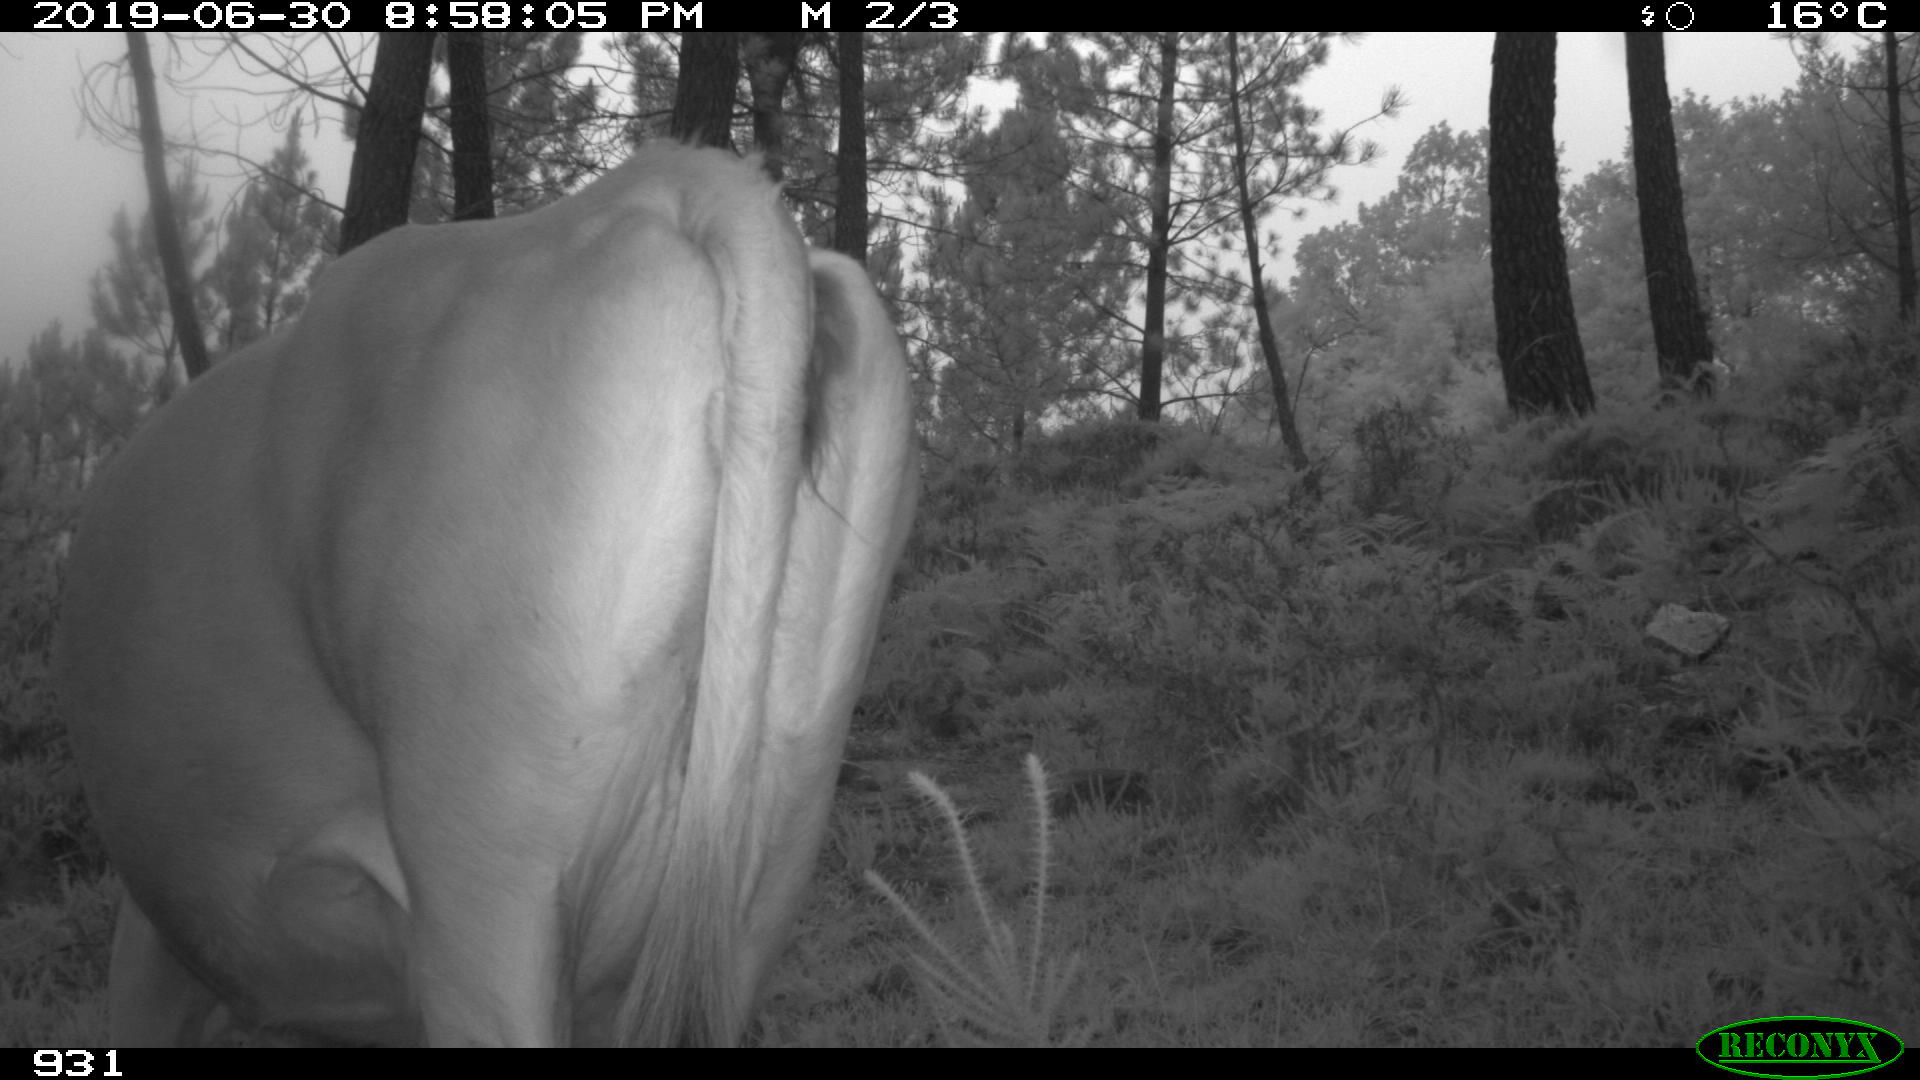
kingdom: Animalia
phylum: Chordata
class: Mammalia
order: Artiodactyla
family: Bovidae
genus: Bos
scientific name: Bos taurus
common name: Domesticated cattle
